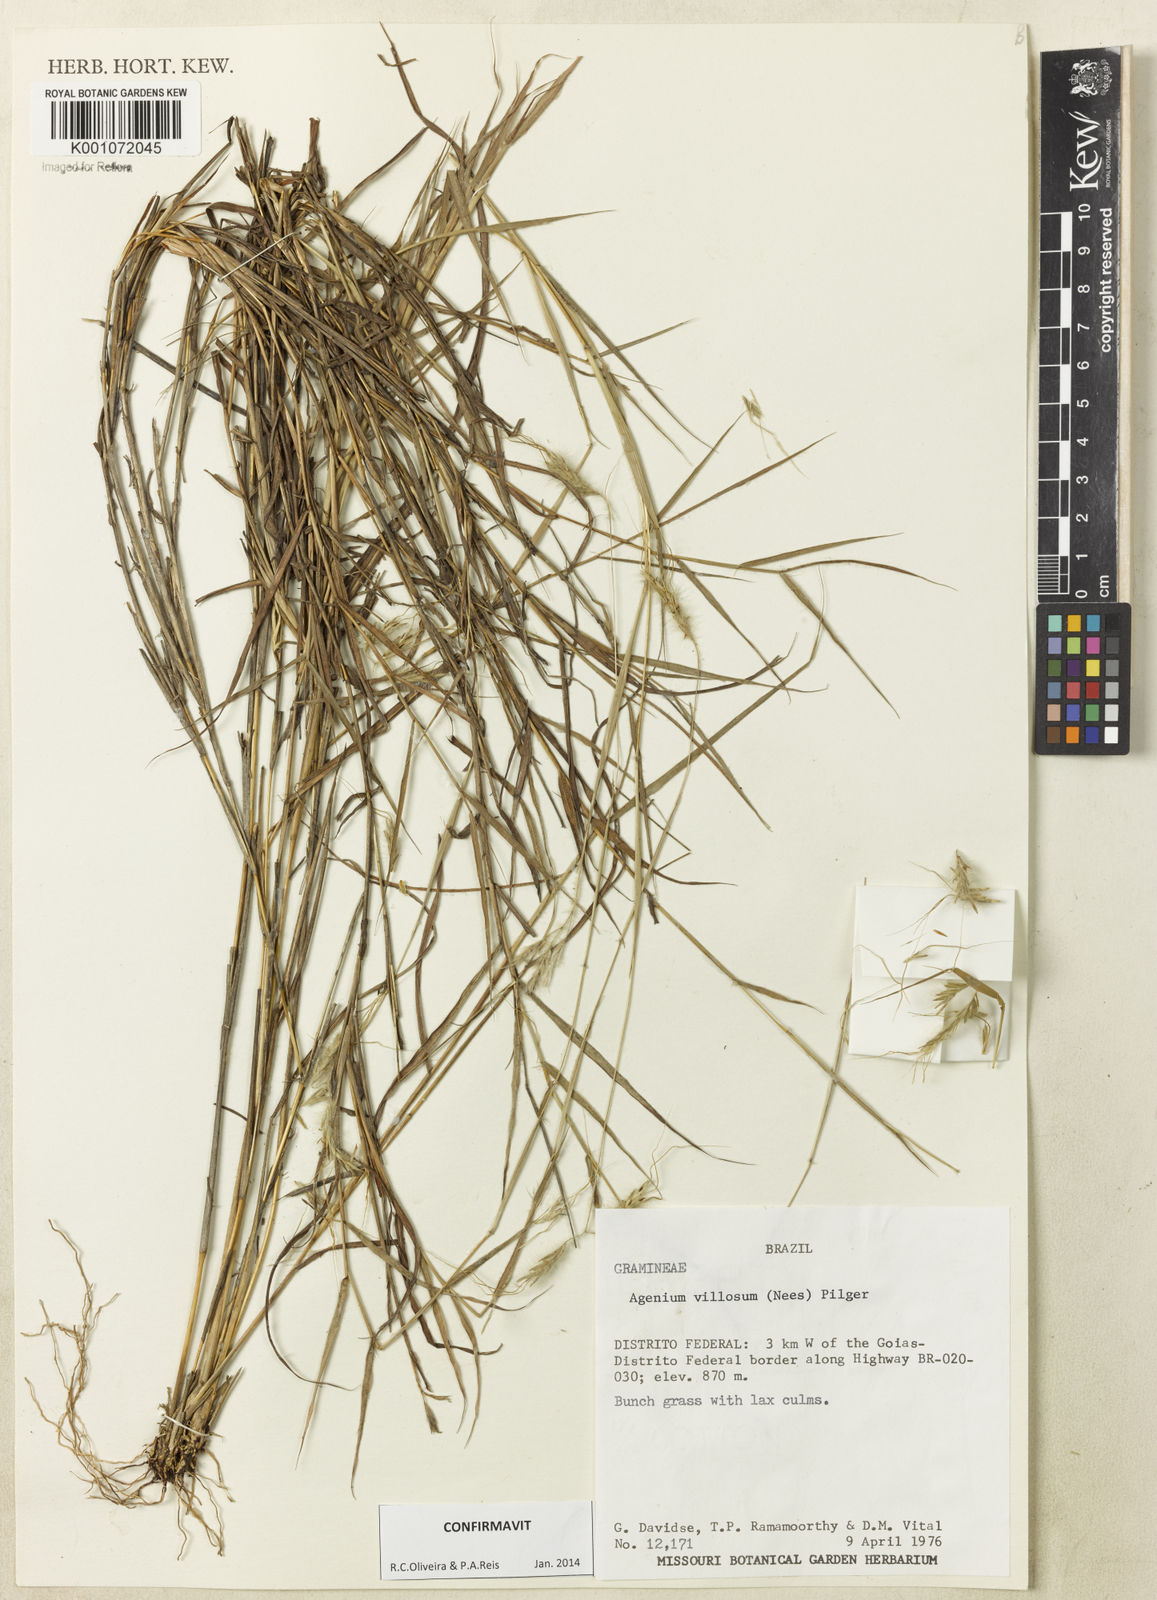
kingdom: Plantae
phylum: Tracheophyta
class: Liliopsida
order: Poales
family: Poaceae
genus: Agenium
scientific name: Agenium villosum
